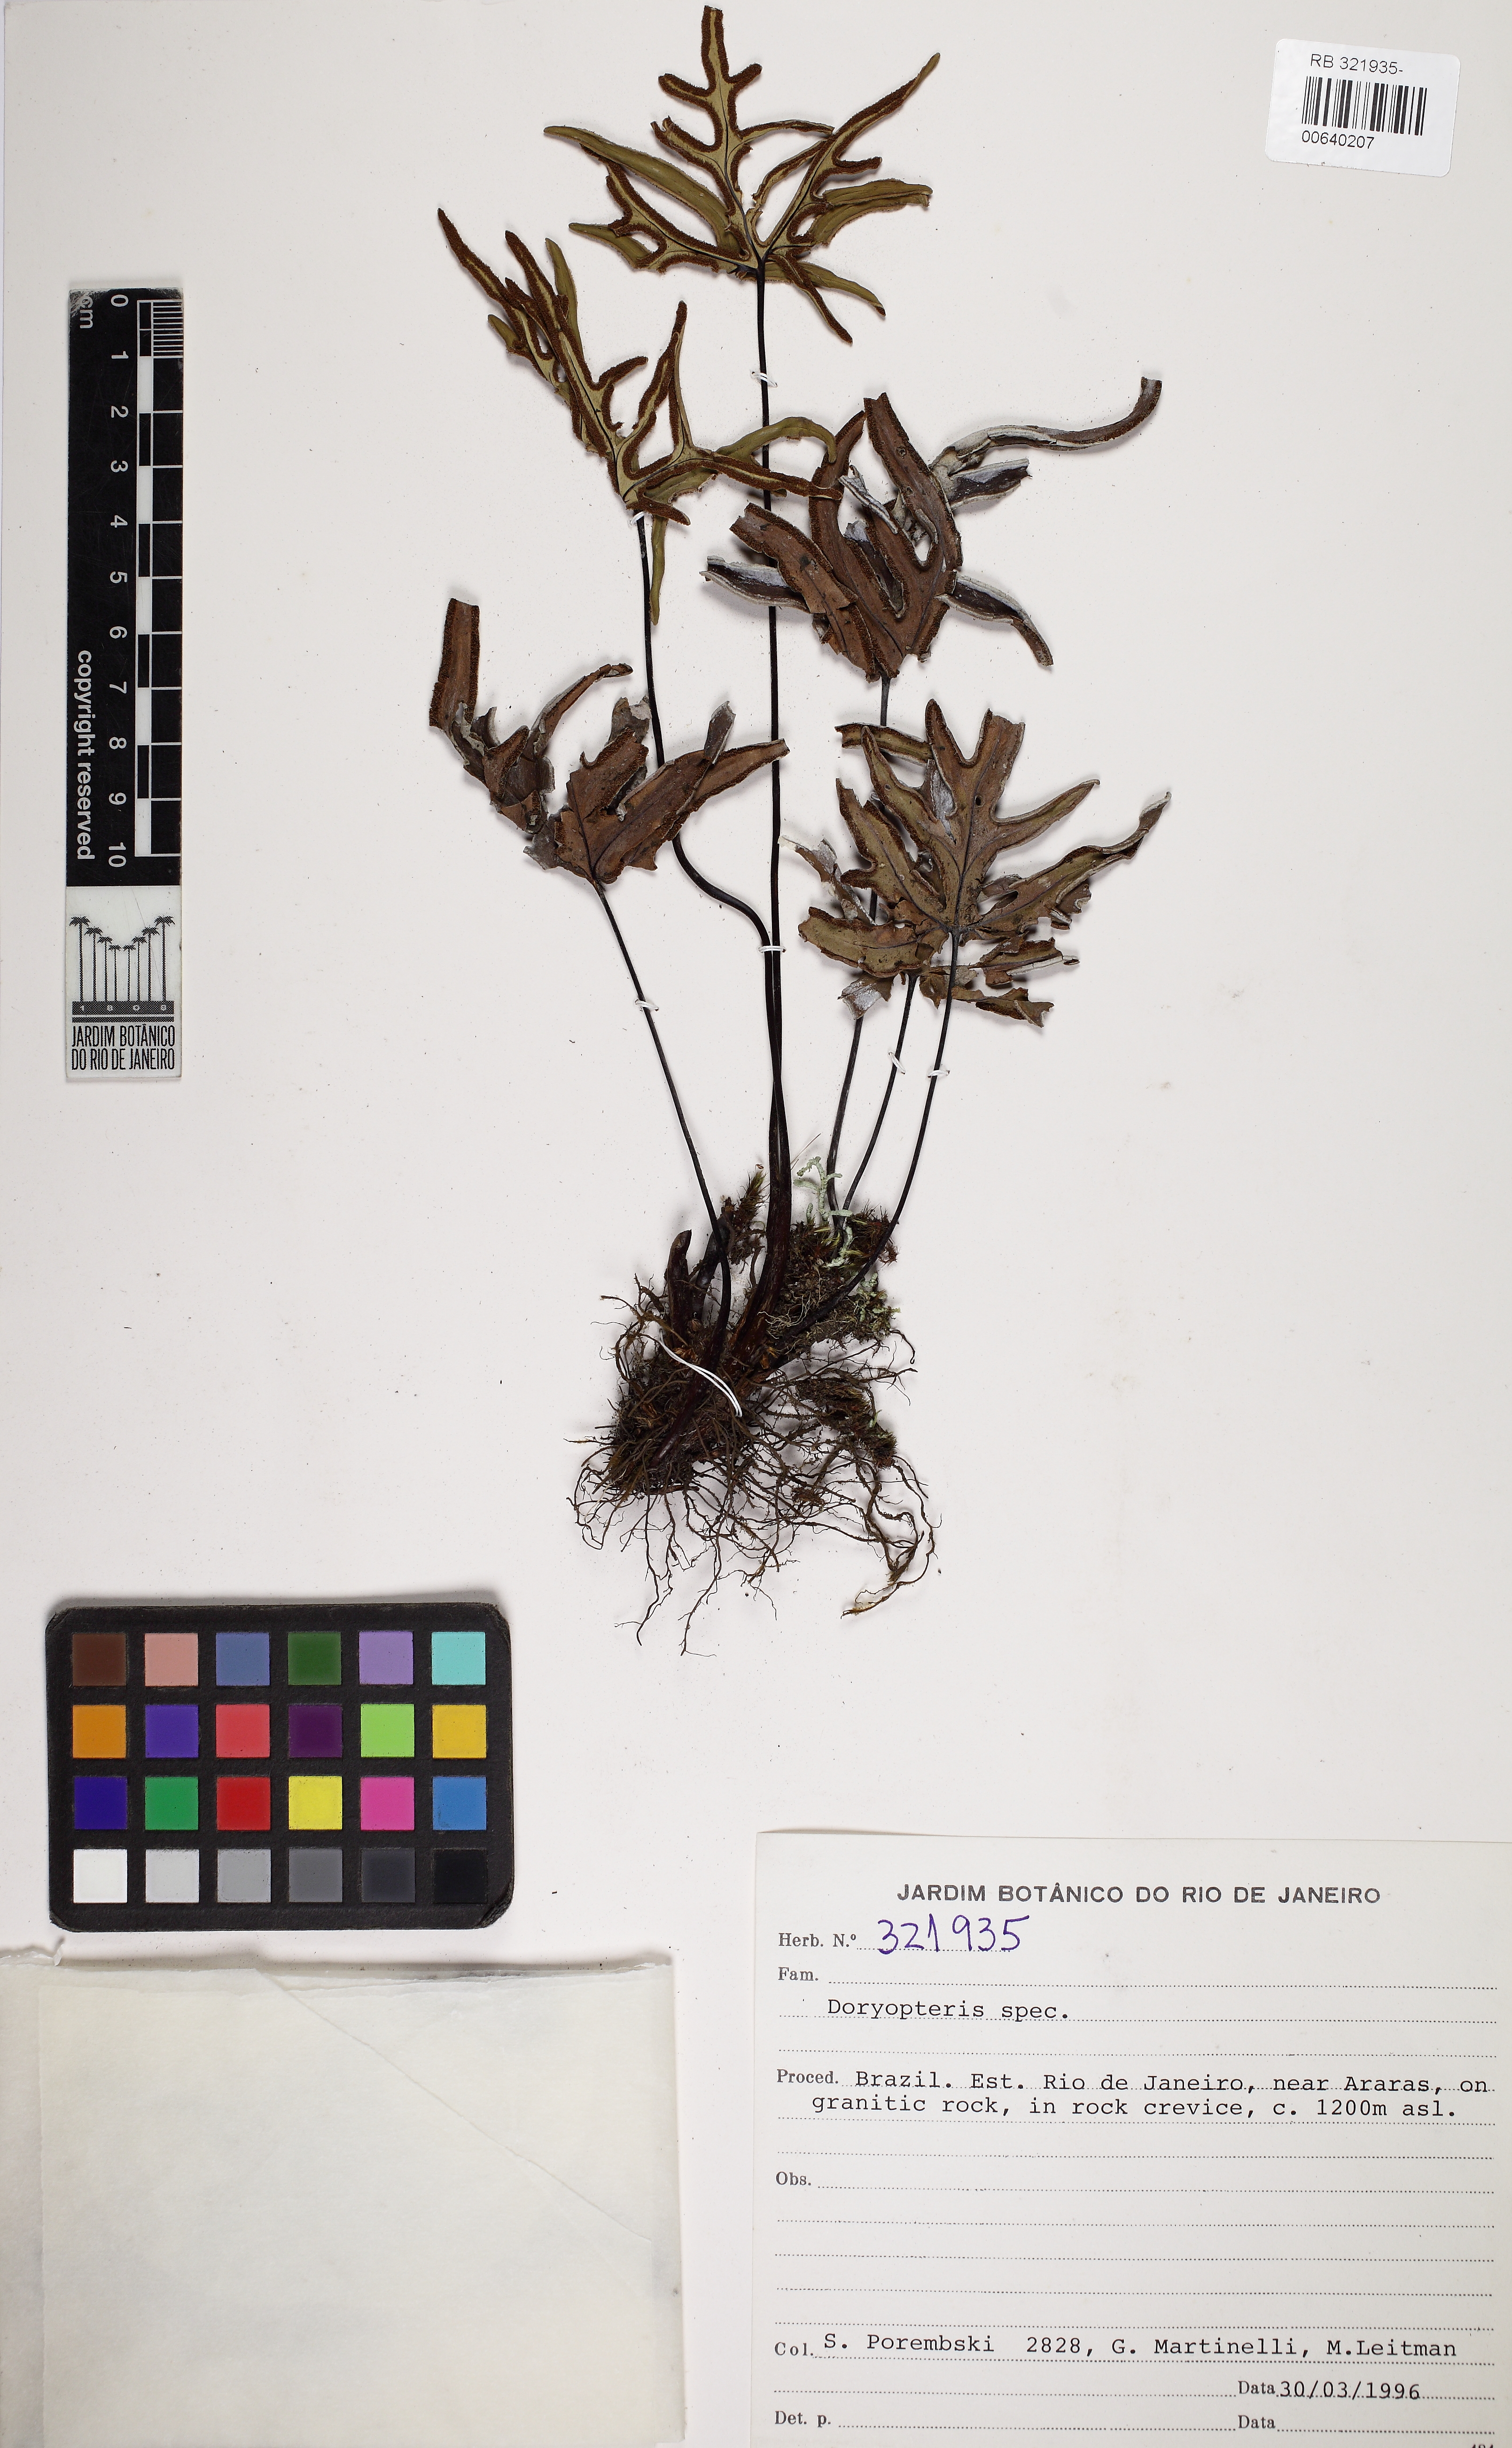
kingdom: Plantae
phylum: Tracheophyta
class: Polypodiopsida
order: Polypodiales
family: Pteridaceae
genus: Doryopteris
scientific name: Doryopteris varians
